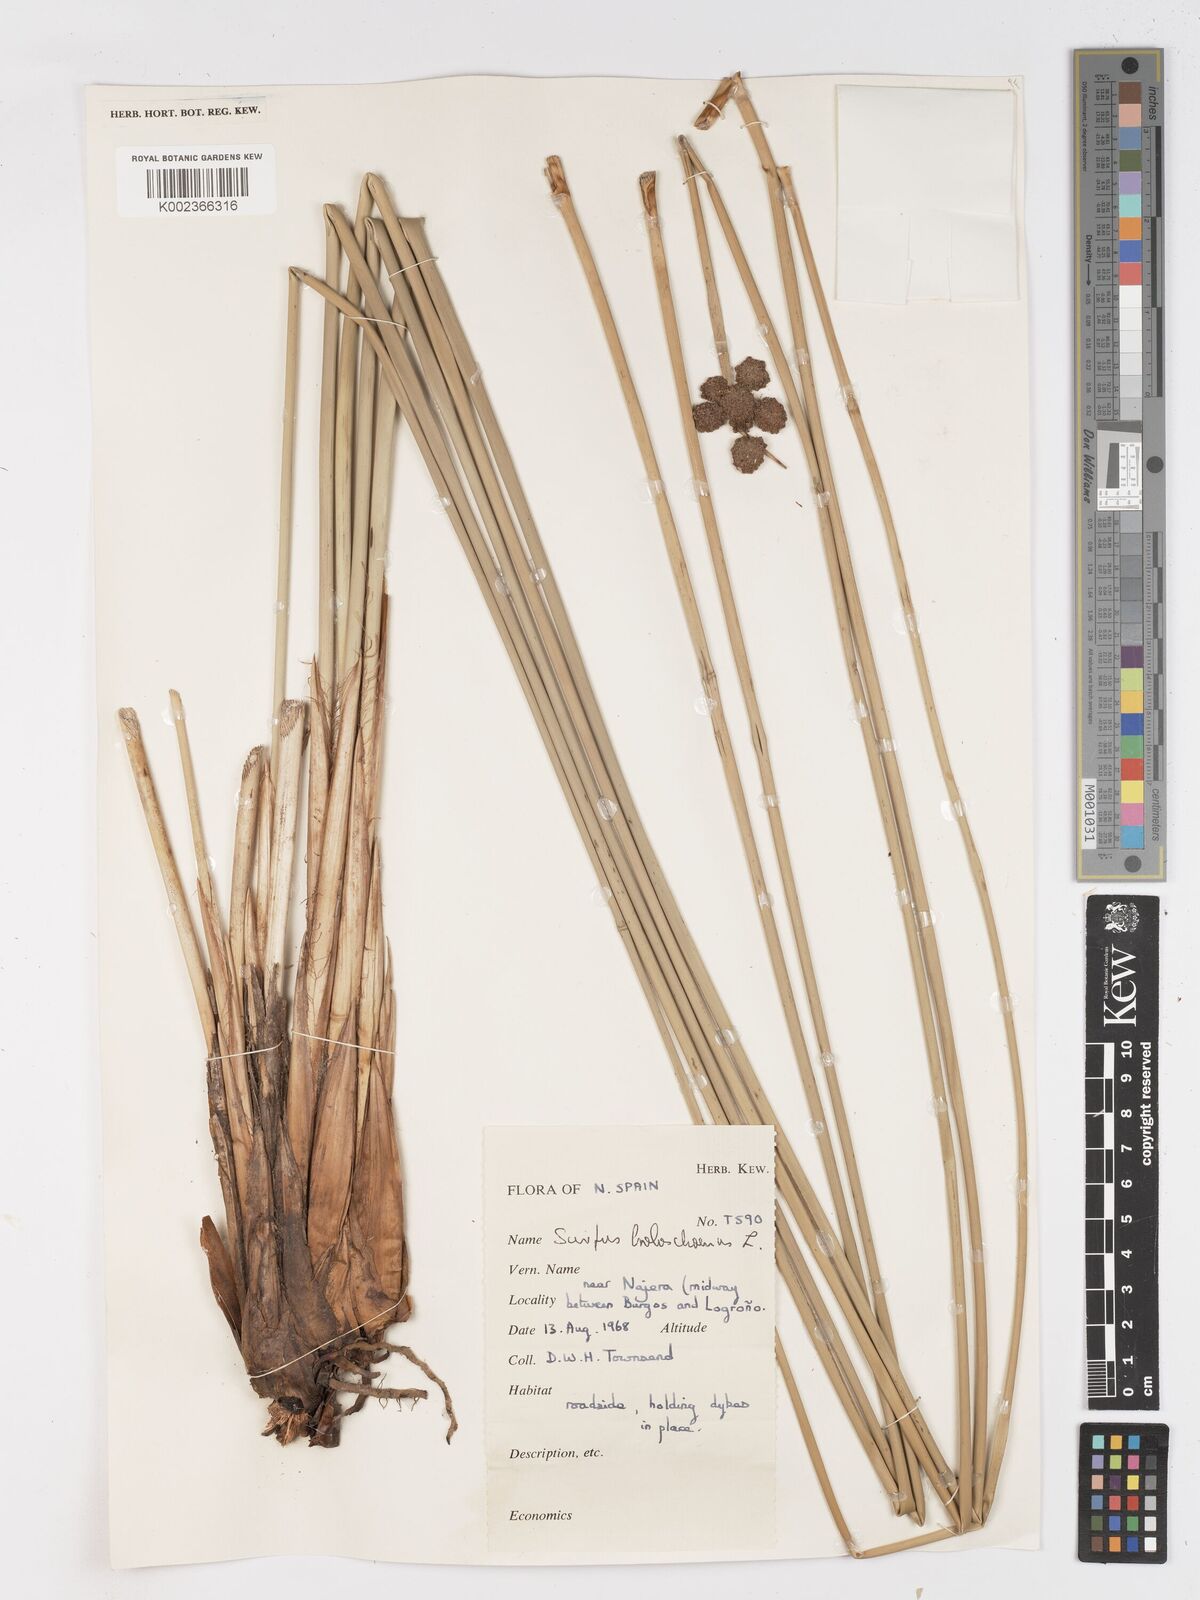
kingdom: Plantae
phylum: Tracheophyta
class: Liliopsida
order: Poales
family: Cyperaceae
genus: Scirpoides
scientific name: Scirpoides holoschoenus
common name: Round-headed club-rush
